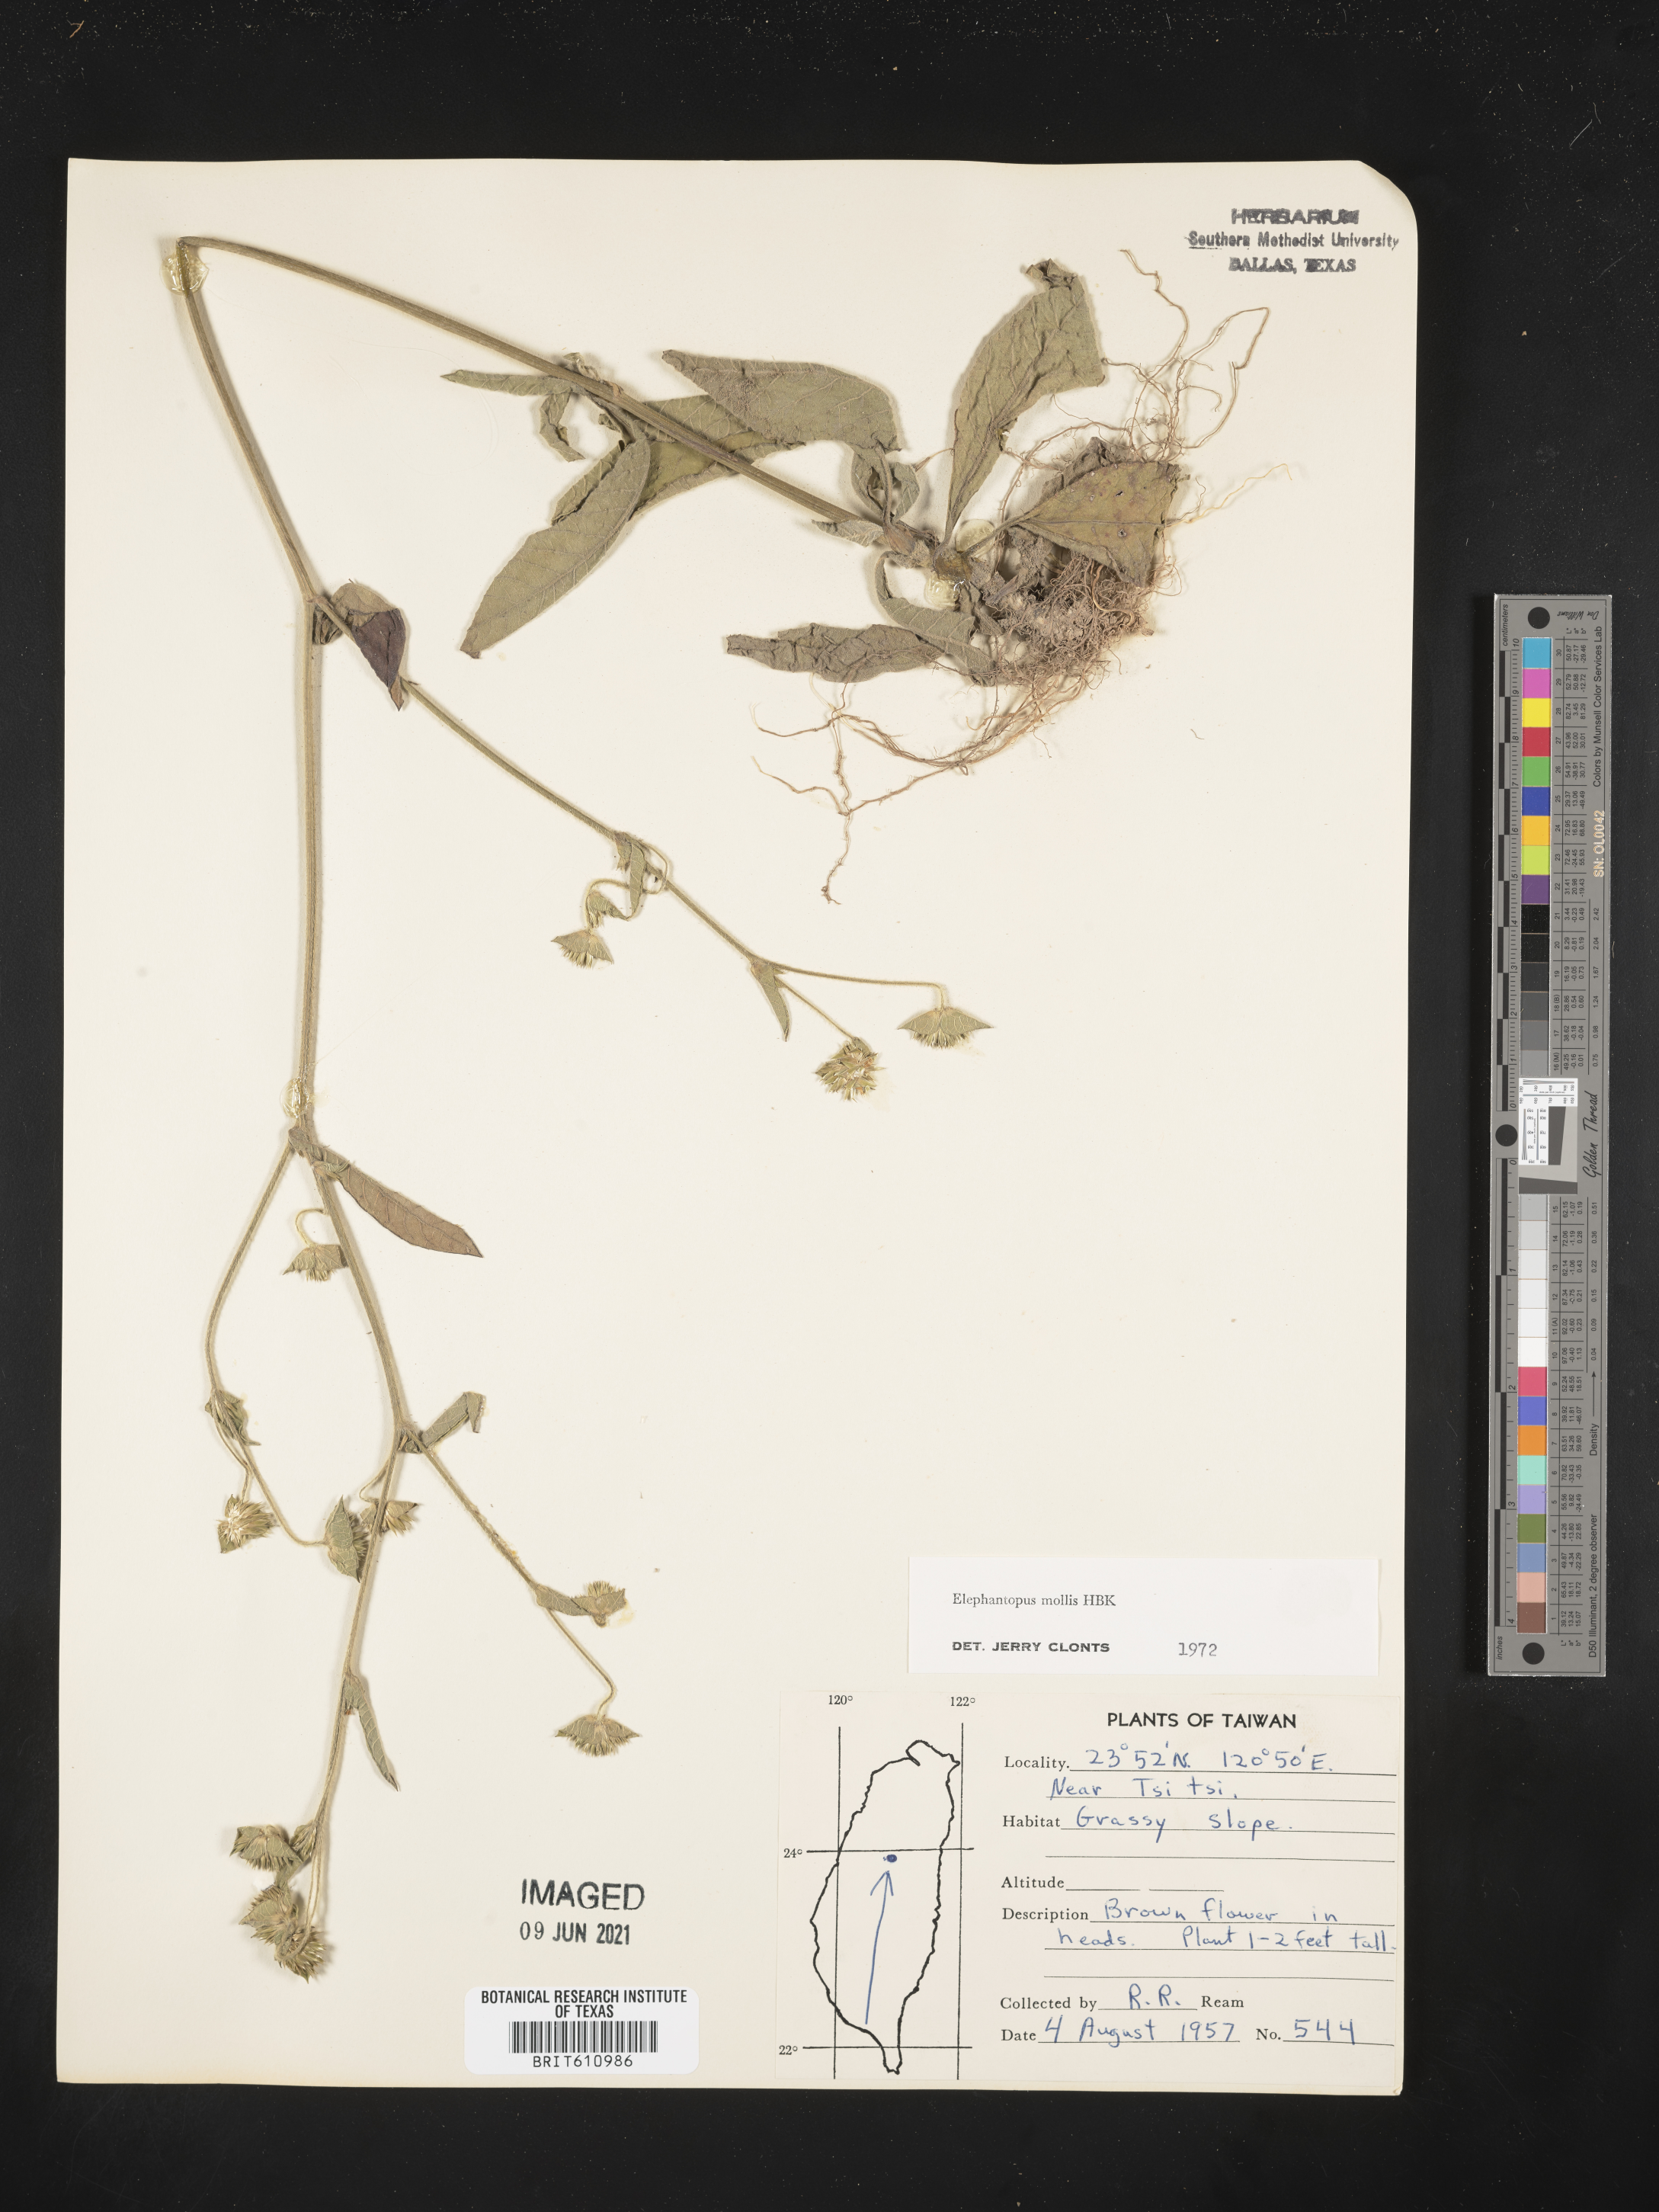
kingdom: Plantae
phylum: Tracheophyta
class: Magnoliopsida
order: Asterales
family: Asteraceae
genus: Elephantopus
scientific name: Elephantopus mollis
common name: Soft elephantsfoot
